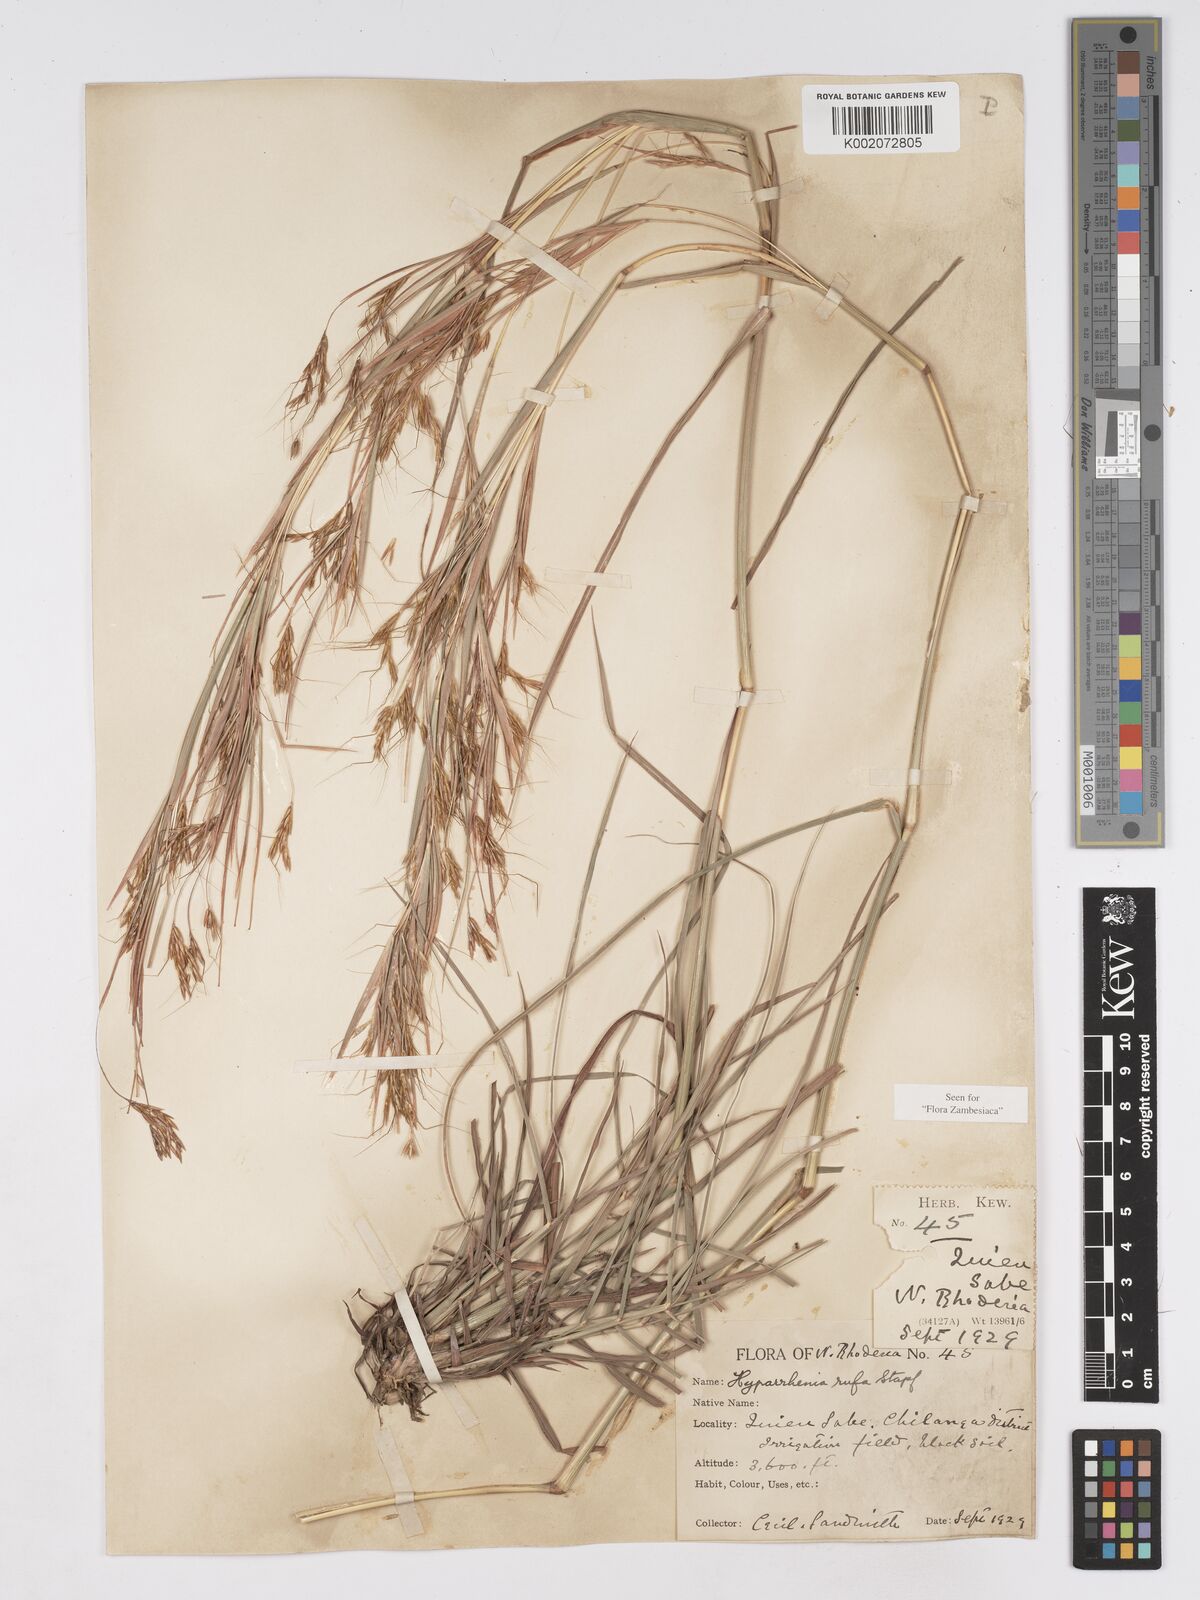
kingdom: Plantae
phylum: Tracheophyta
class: Liliopsida
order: Poales
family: Poaceae
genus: Hyparrhenia
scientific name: Hyparrhenia rufa
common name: Jaraguagrass
